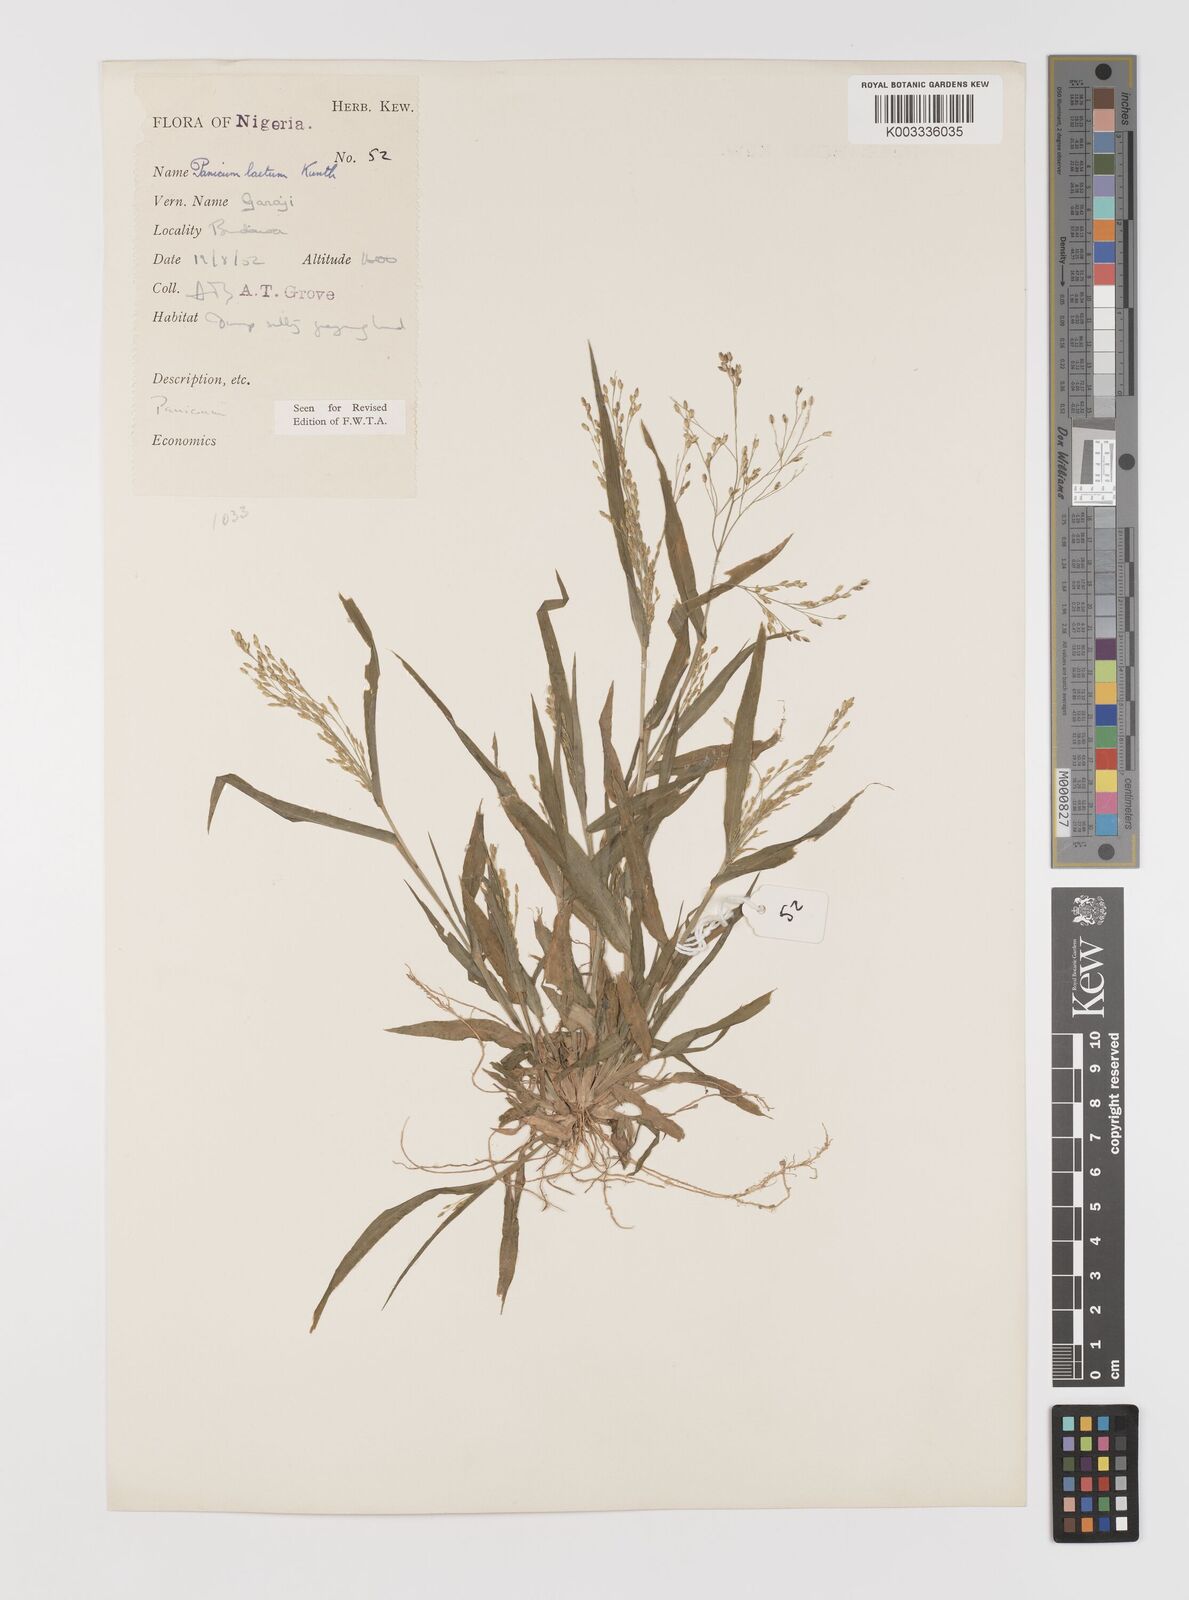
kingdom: Plantae
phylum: Tracheophyta
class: Liliopsida
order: Poales
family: Poaceae
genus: Panicum
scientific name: Panicum laetum
